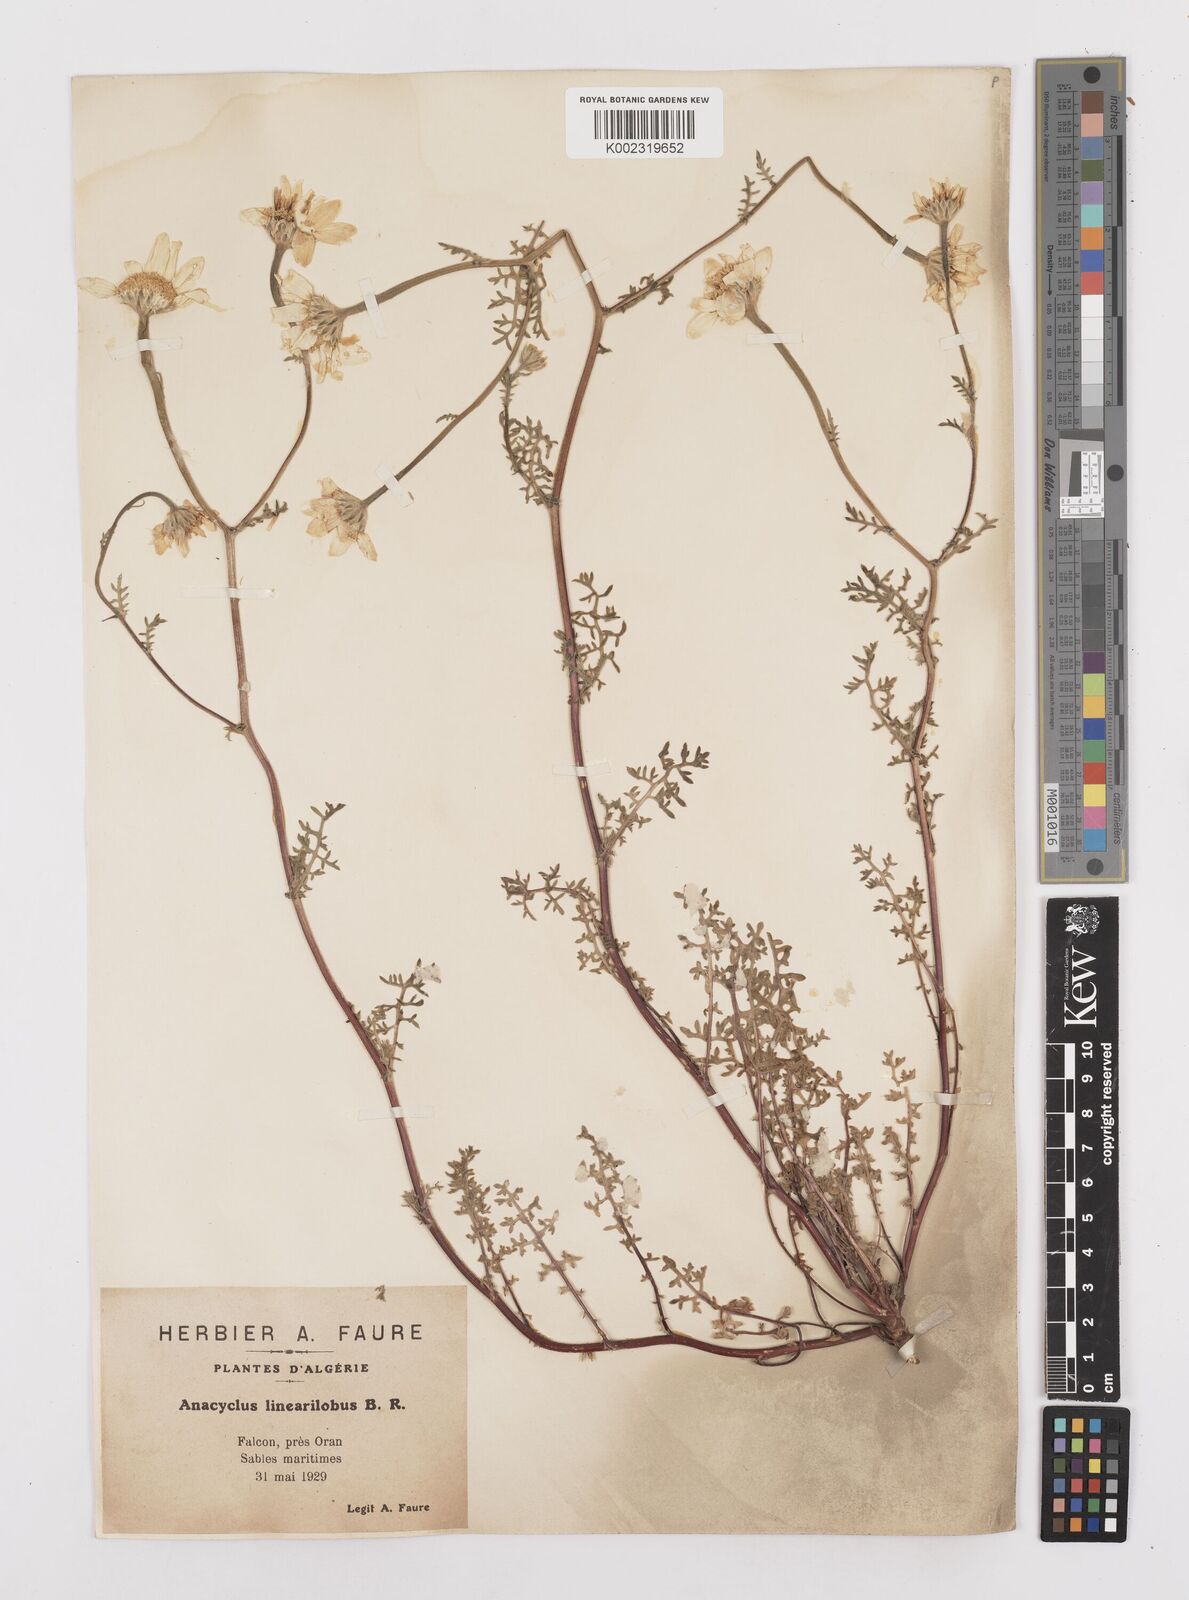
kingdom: Plantae
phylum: Tracheophyta
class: Magnoliopsida
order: Asterales
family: Asteraceae
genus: Anacyclus
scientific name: Anacyclus linearilobus
